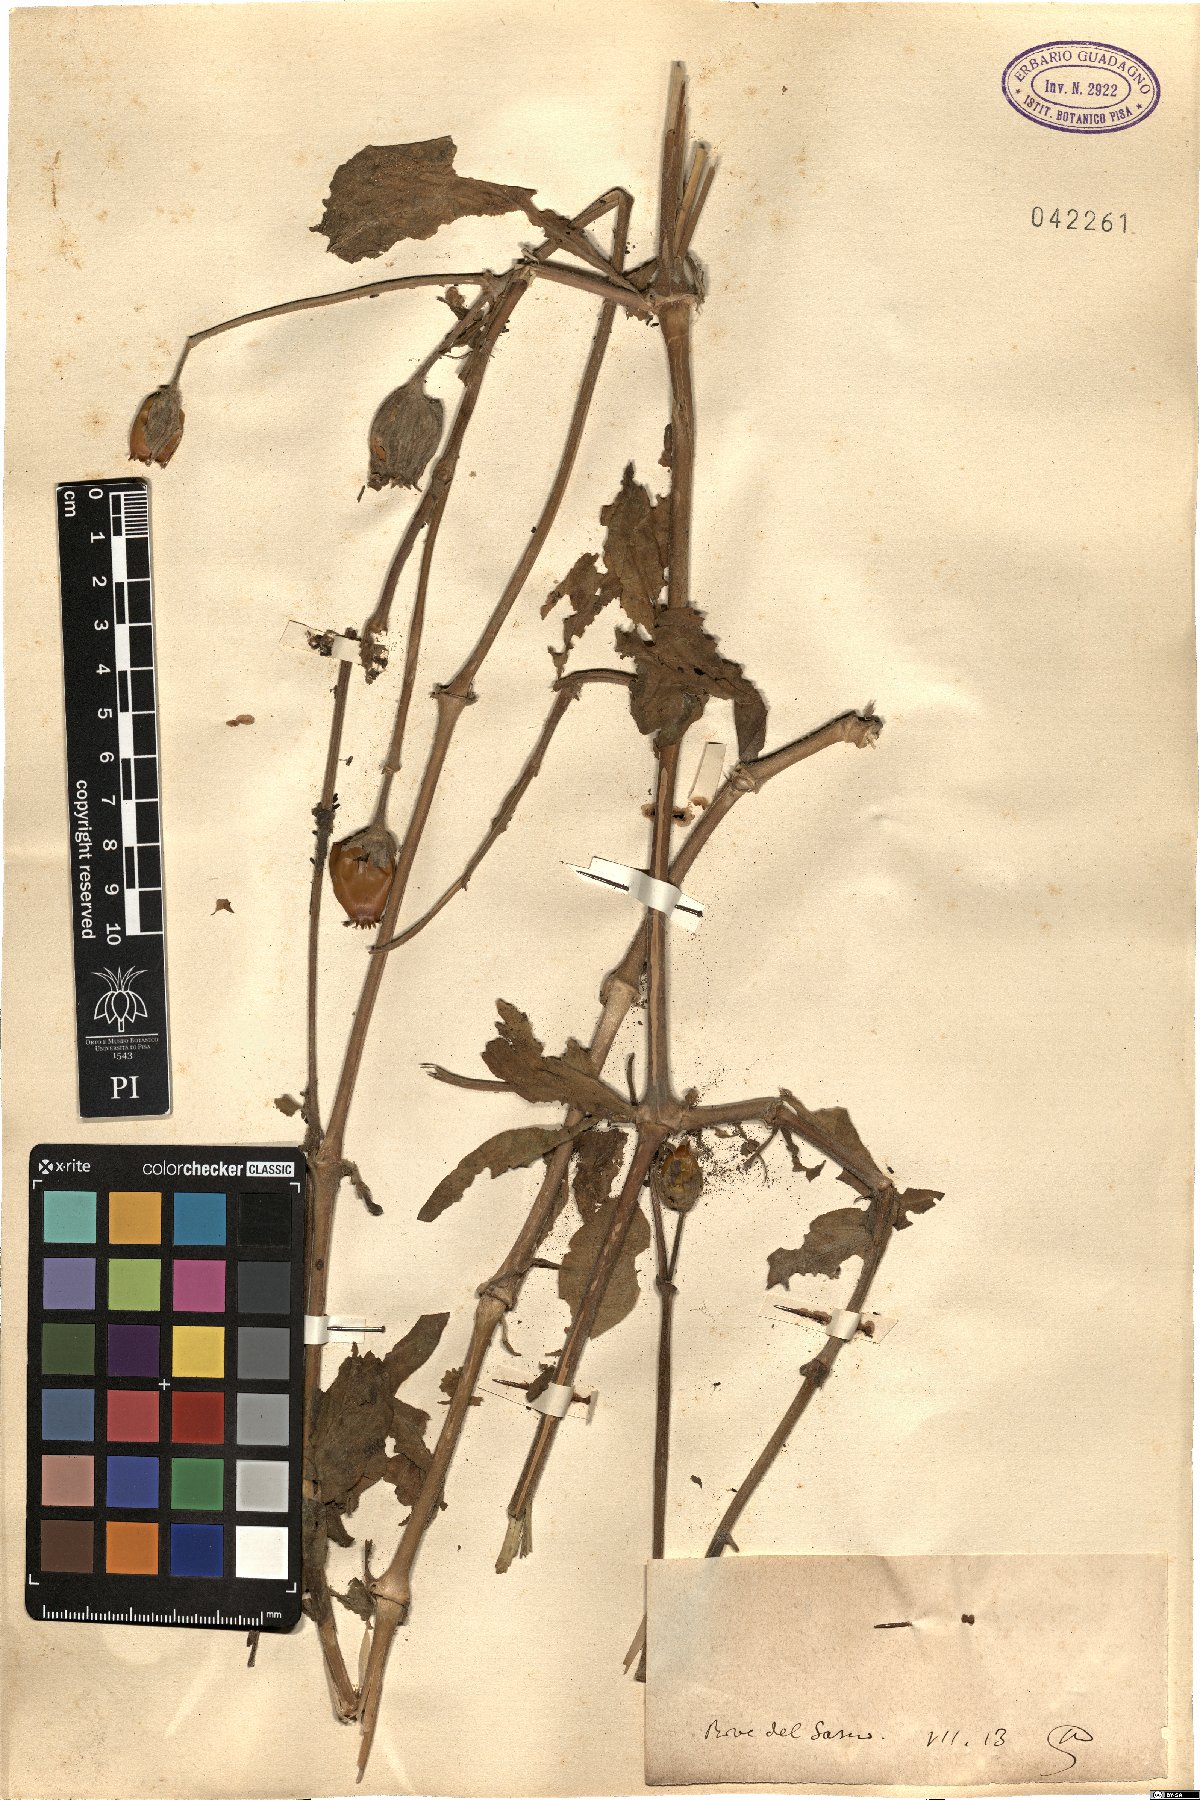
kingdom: Animalia
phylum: Cnidaria
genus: Cucubalus
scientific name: Cucubalus
